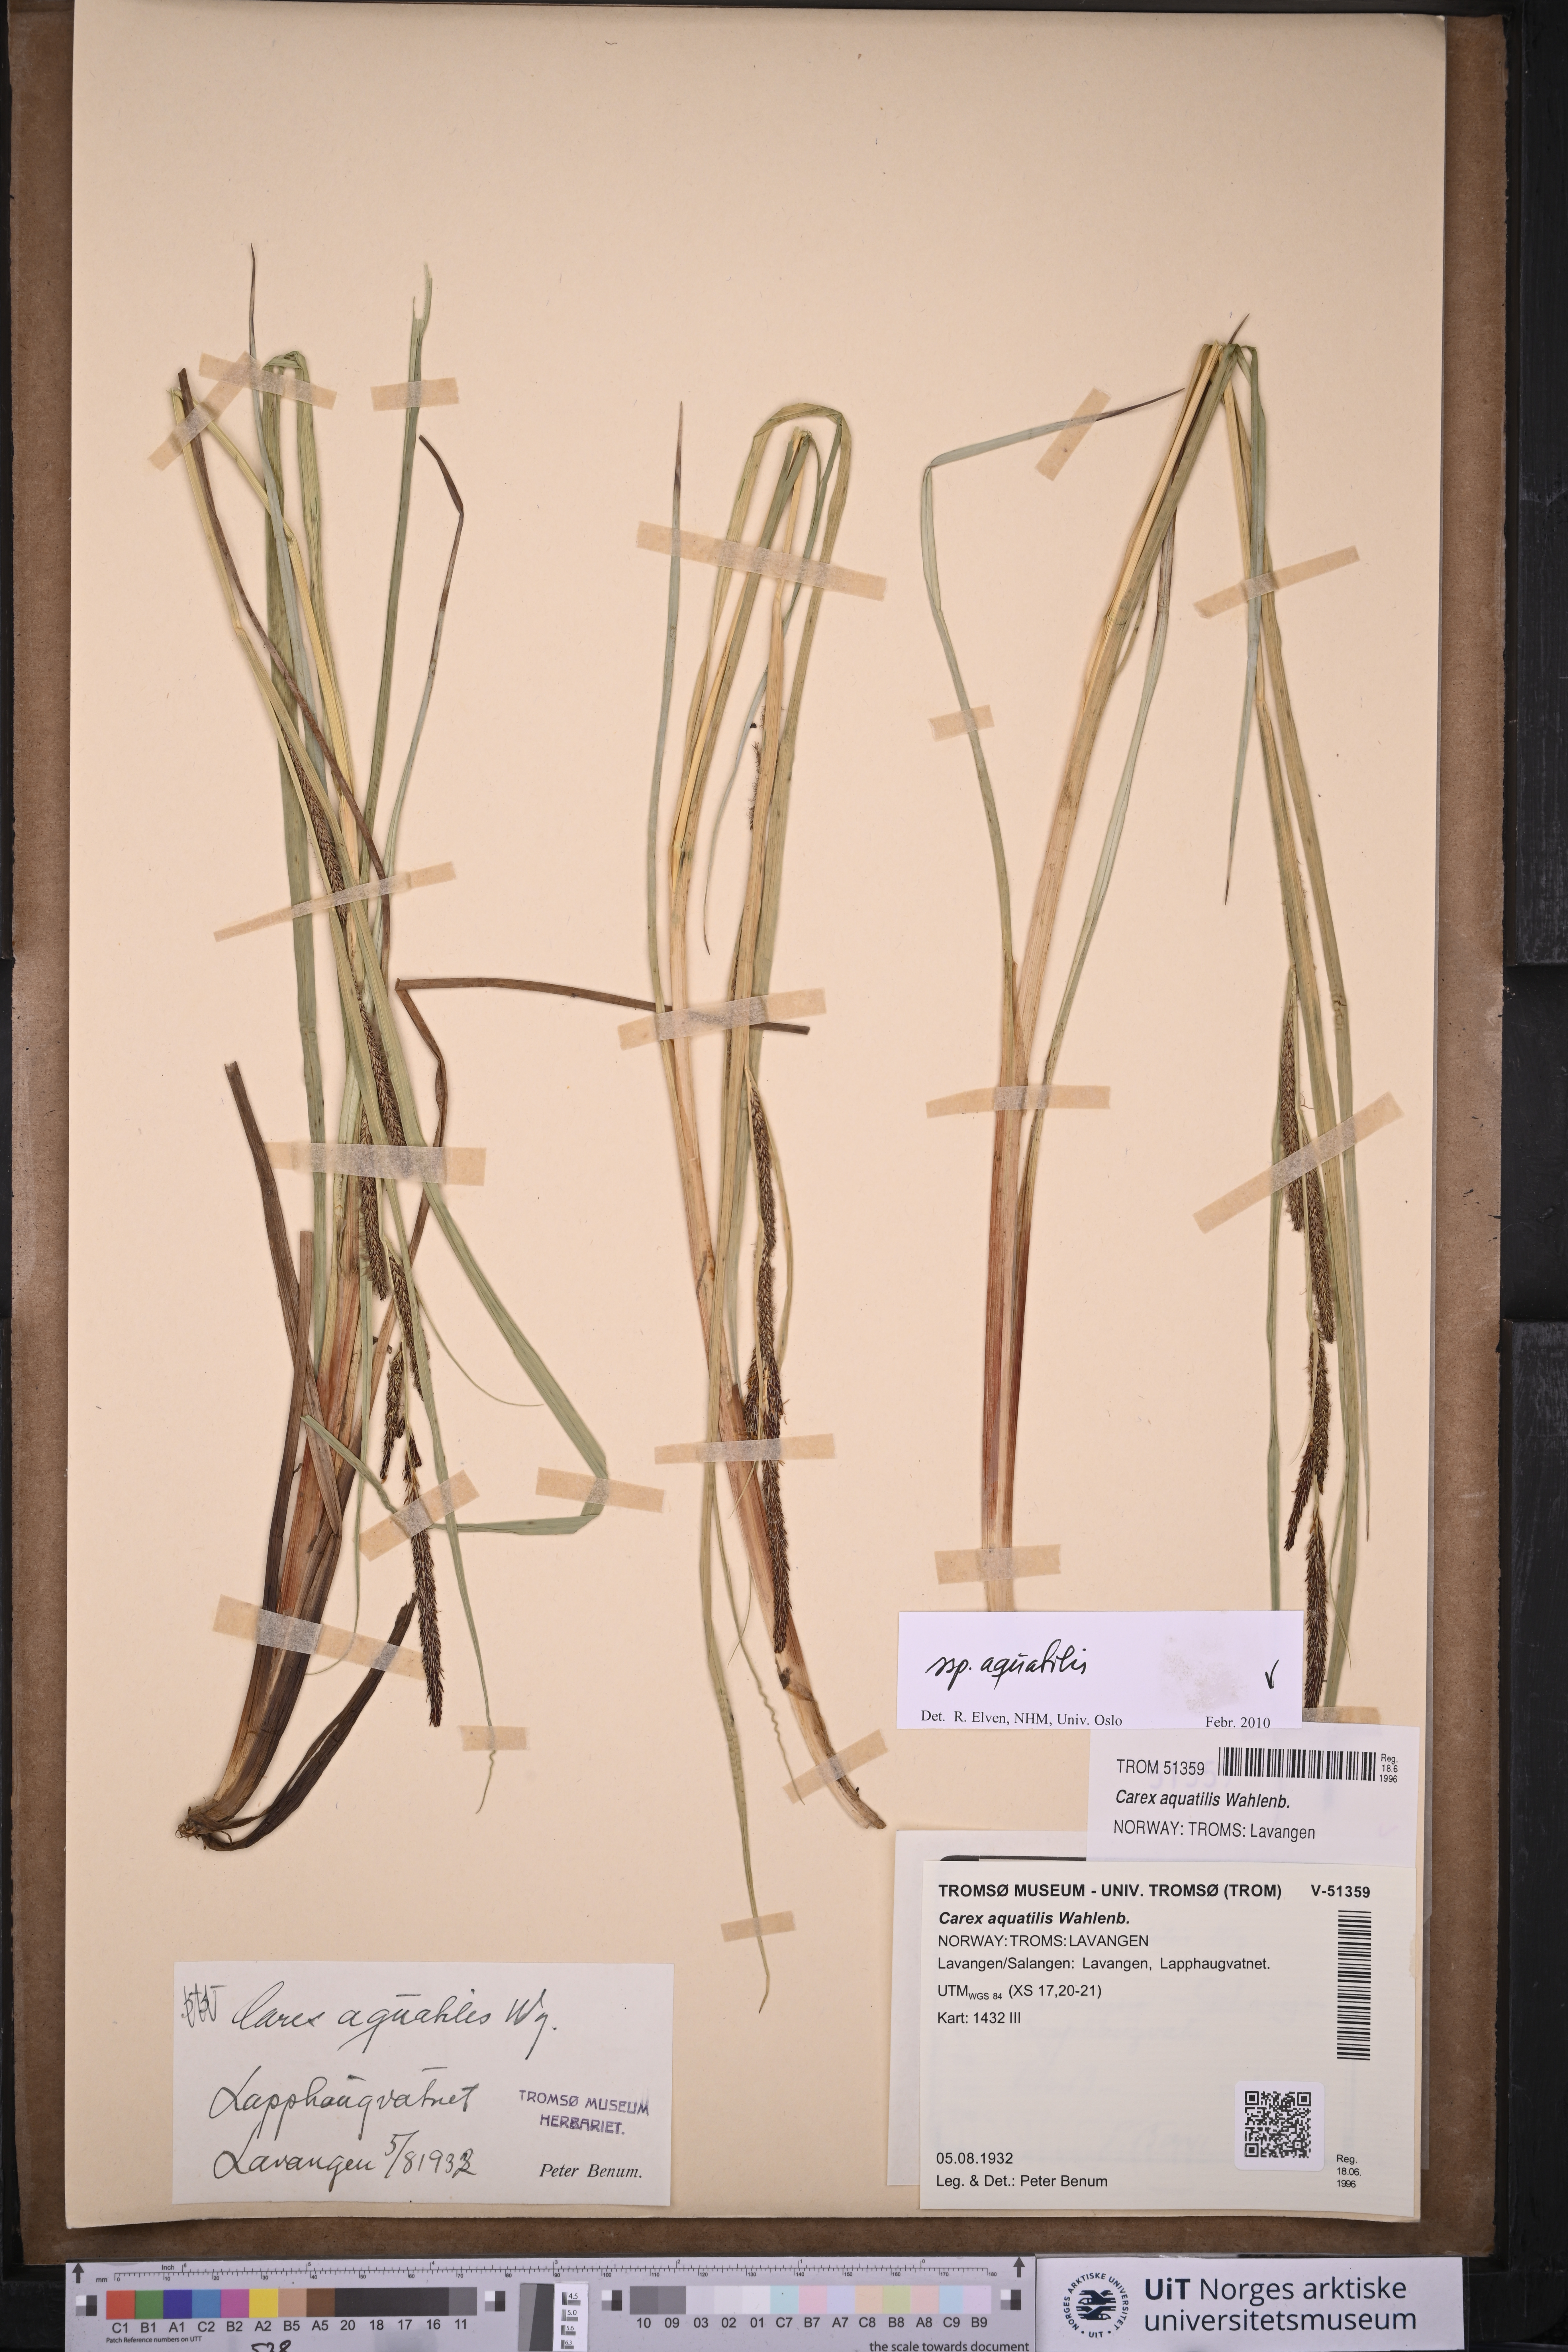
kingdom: Plantae
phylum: Tracheophyta
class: Liliopsida
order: Poales
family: Cyperaceae
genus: Carex
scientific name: Carex aquatilis
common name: Water sedge
